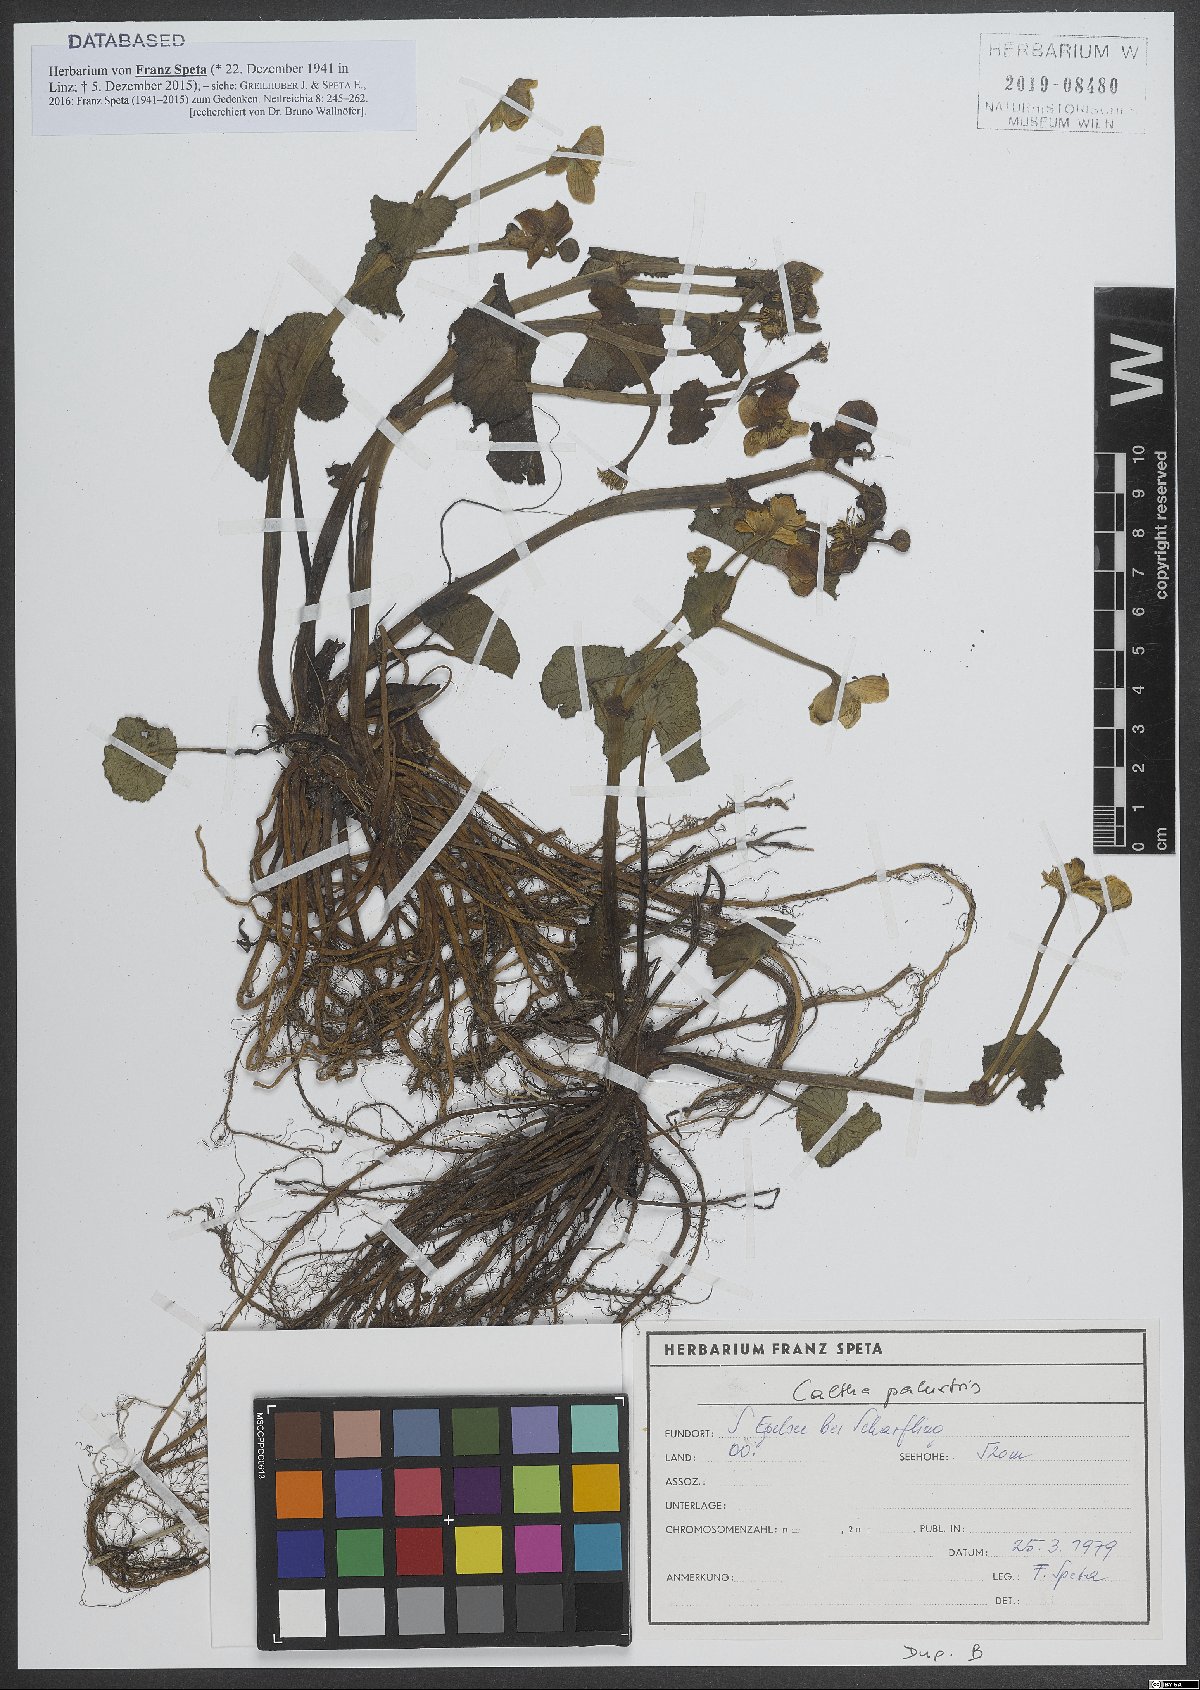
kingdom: Plantae
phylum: Tracheophyta
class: Magnoliopsida
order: Ranunculales
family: Ranunculaceae
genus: Caltha
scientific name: Caltha palustris
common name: Marsh marigold
